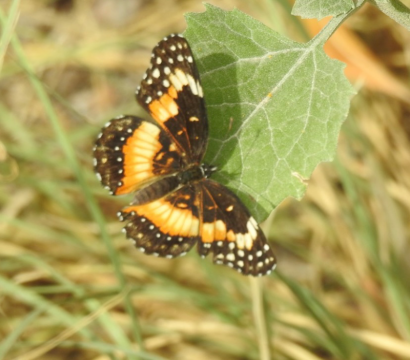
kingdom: Animalia
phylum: Arthropoda
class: Insecta
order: Lepidoptera
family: Nymphalidae
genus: Chlosyne
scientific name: Chlosyne lacinia
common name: Bordered Patch
